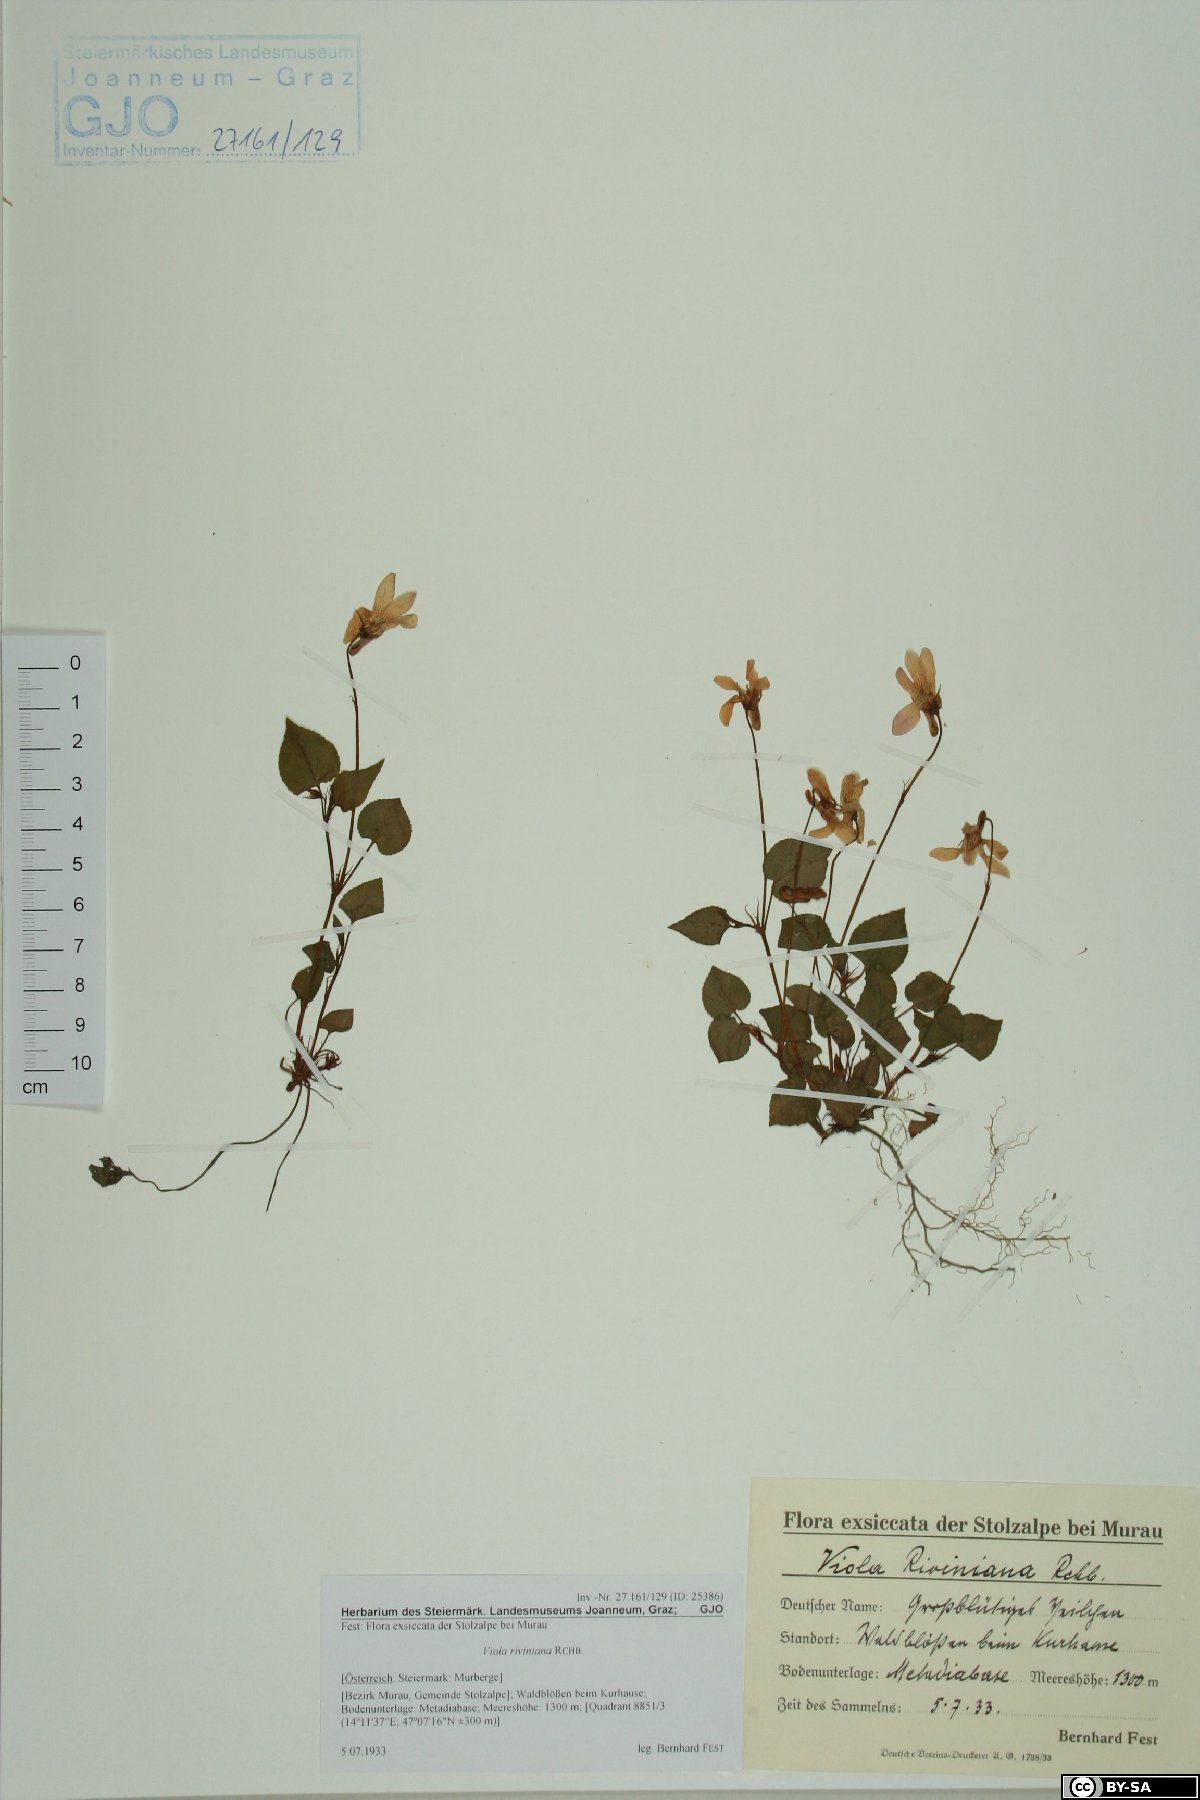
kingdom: Plantae
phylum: Tracheophyta
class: Magnoliopsida
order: Malpighiales
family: Violaceae
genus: Viola
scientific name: Viola riviniana
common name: Common dog-violet
